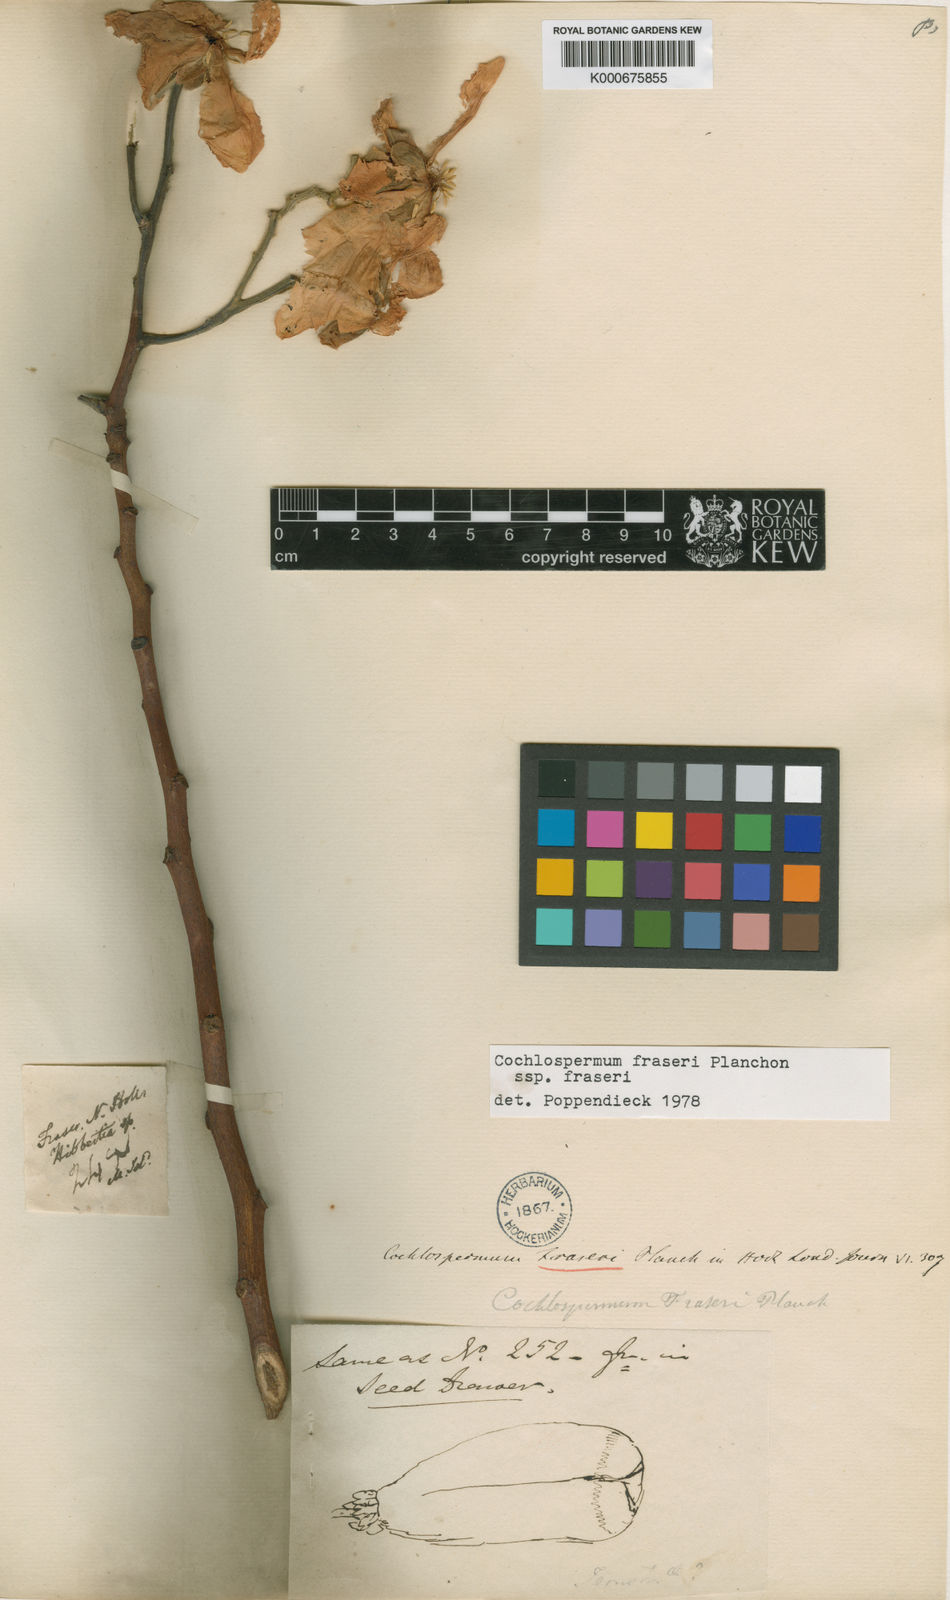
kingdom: Plantae
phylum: Tracheophyta
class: Magnoliopsida
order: Malvales
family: Cochlospermaceae
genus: Cochlospermum
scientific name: Cochlospermum fraseri
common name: Kapokbush
